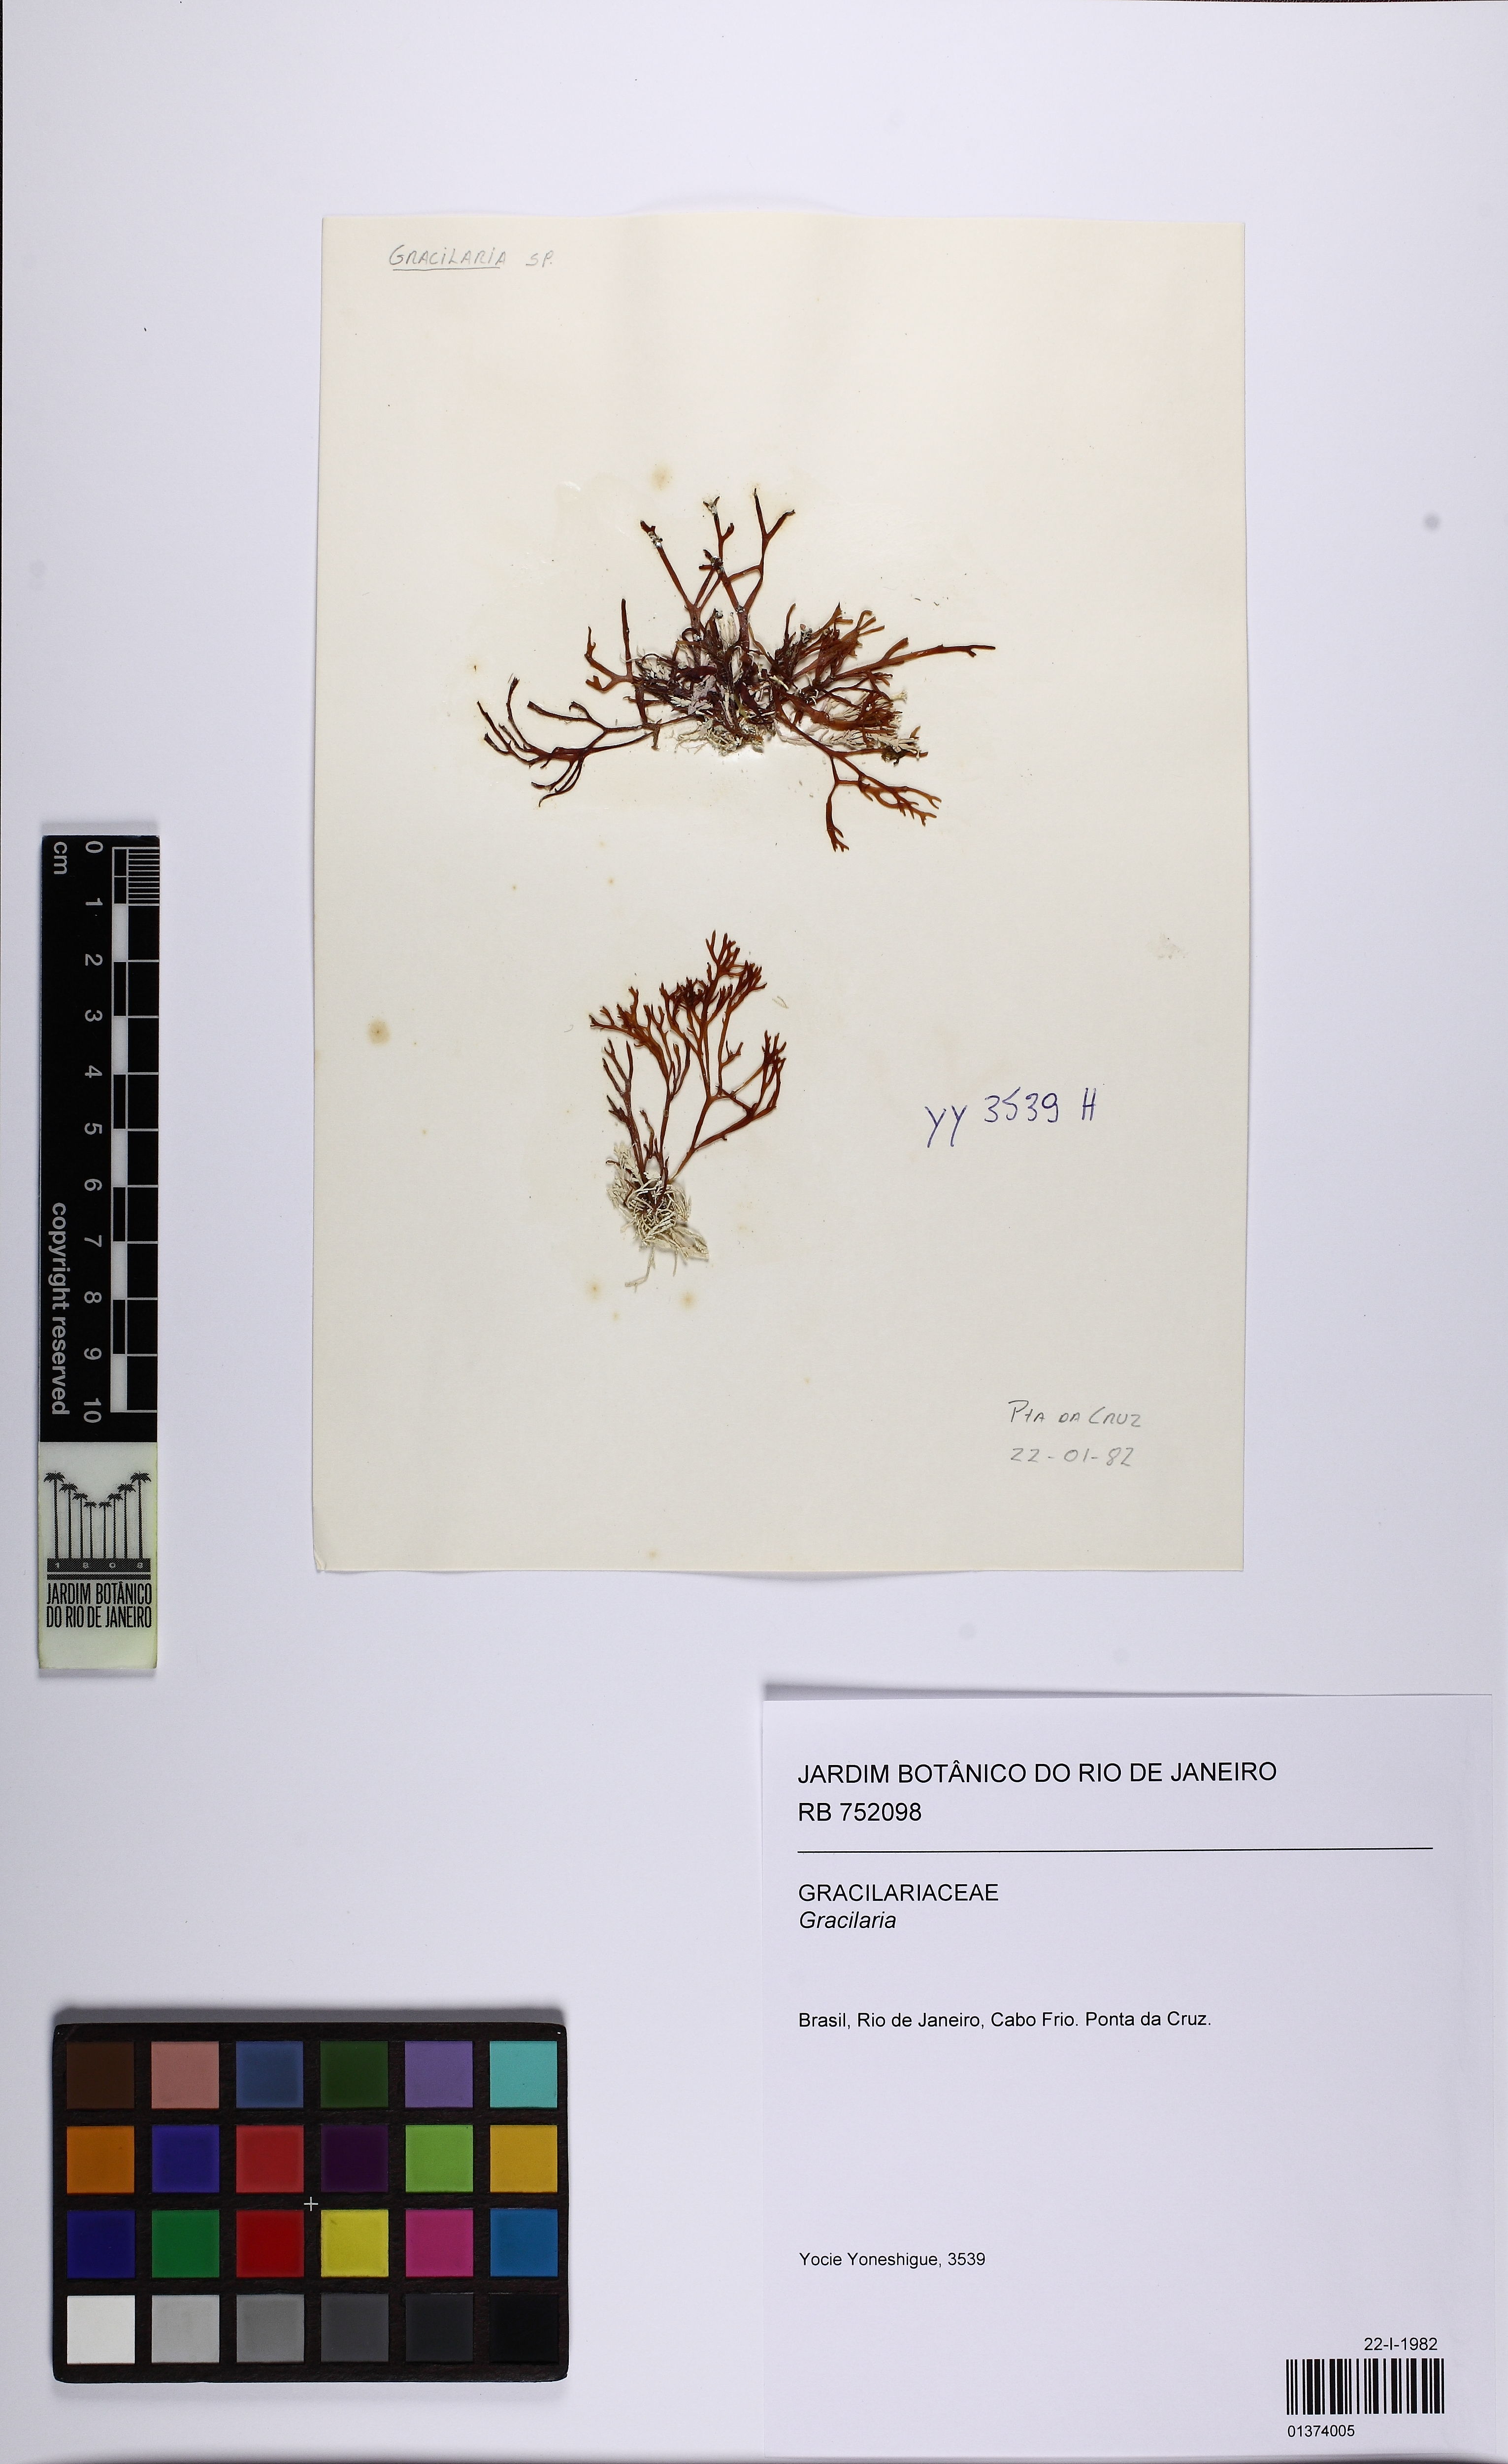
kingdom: Plantae
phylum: Rhodophyta
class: Florideophyceae
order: Gracilariales
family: Gracilariaceae
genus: Gracilaria
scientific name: Gracilaria
